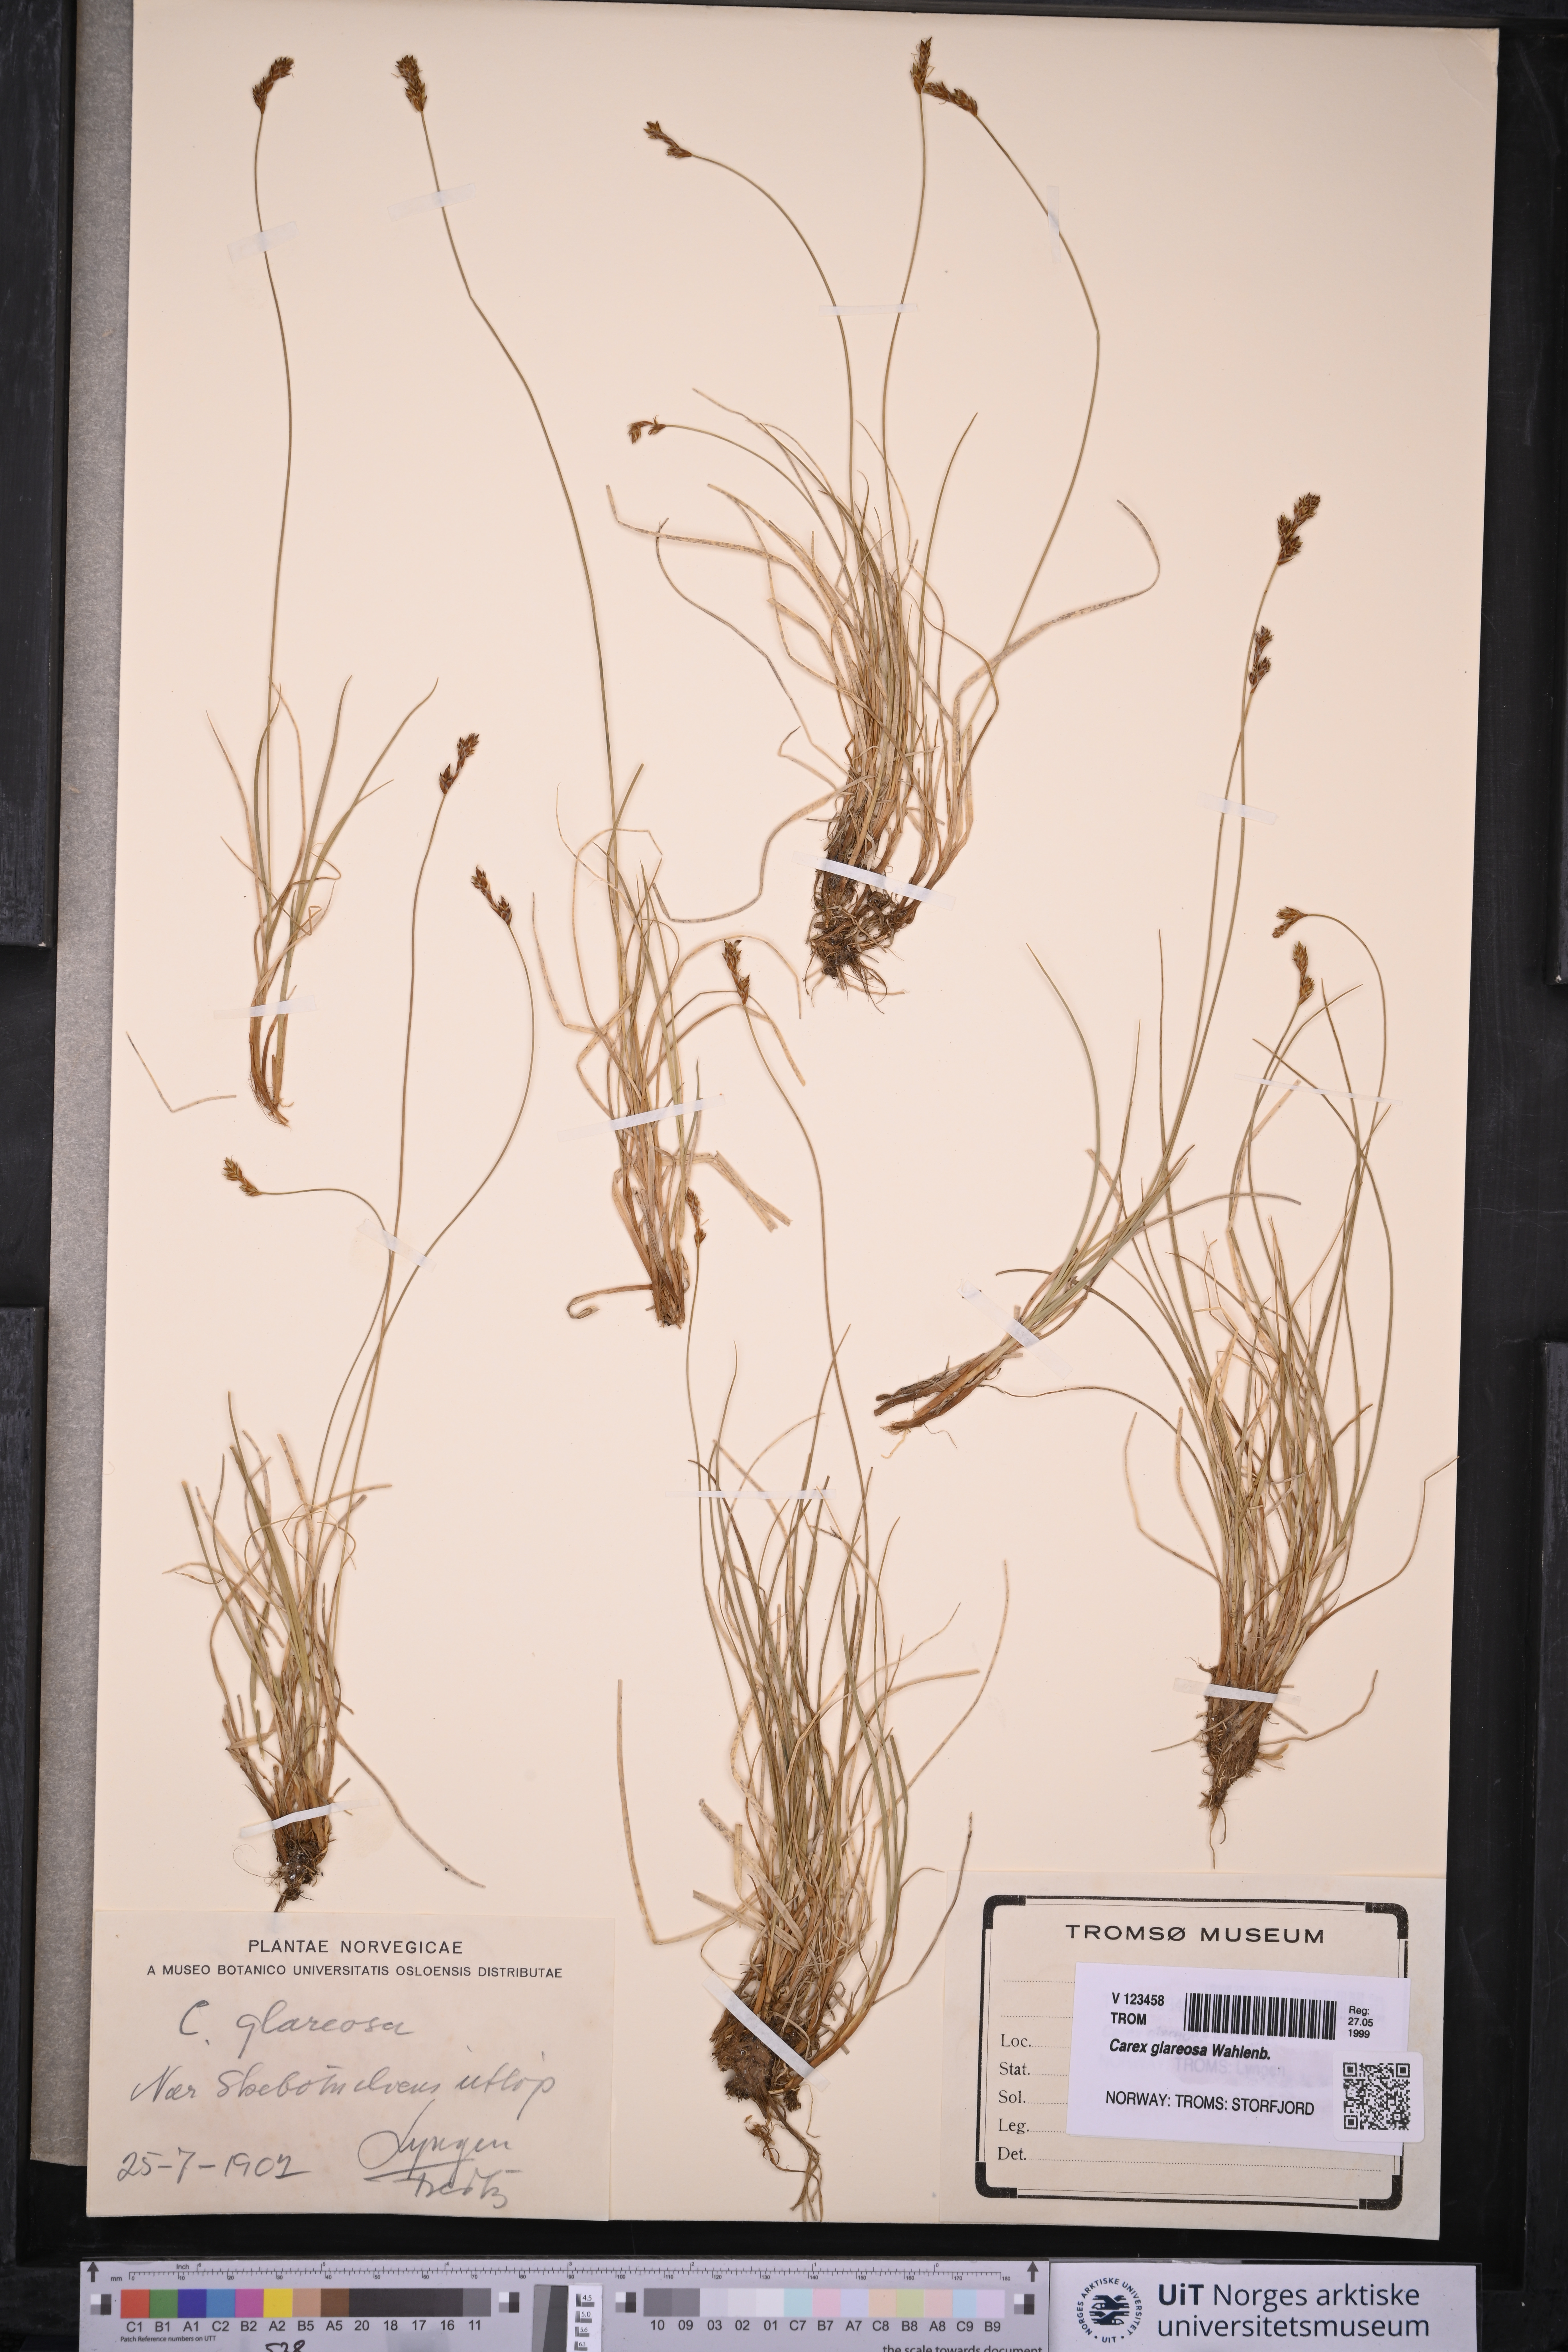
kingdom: Plantae
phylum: Tracheophyta
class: Liliopsida
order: Poales
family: Cyperaceae
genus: Carex
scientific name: Carex glareosa
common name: Clustered sedge
